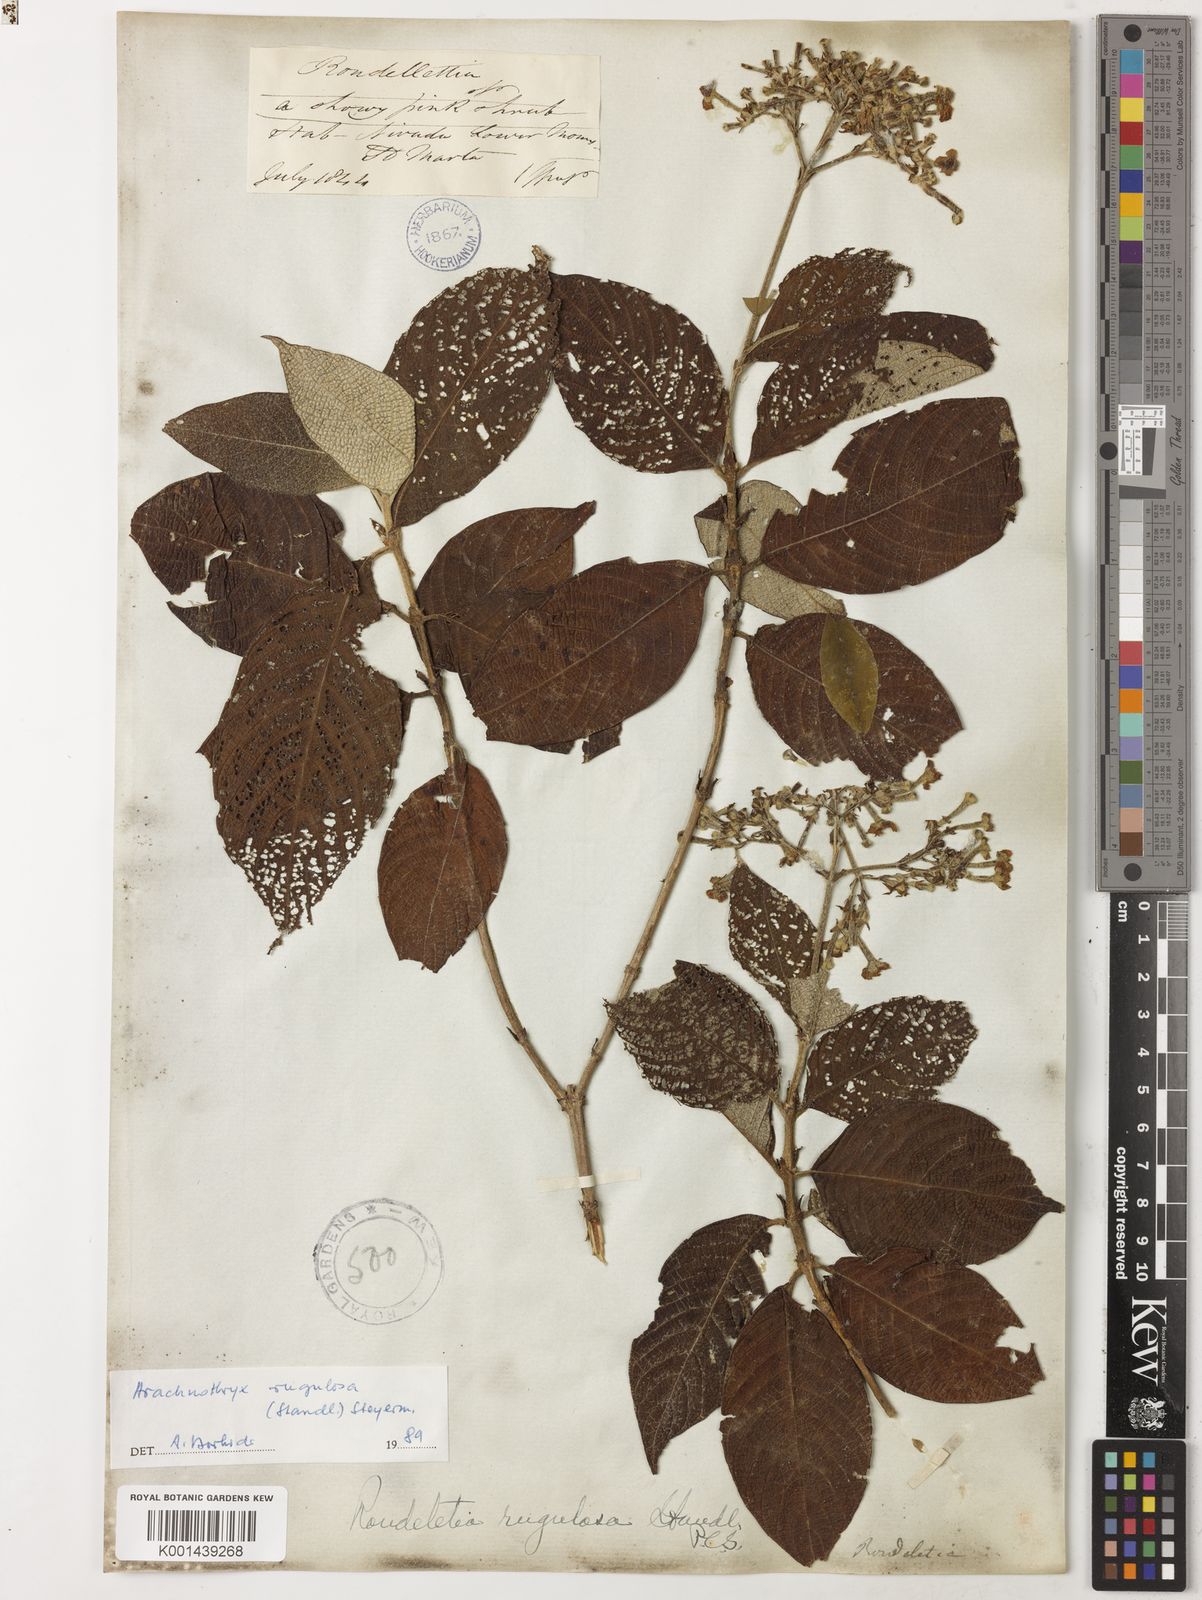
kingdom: Plantae
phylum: Tracheophyta
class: Magnoliopsida
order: Gentianales
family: Rubiaceae
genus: Arachnothryx
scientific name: Arachnothryx rugulosa
